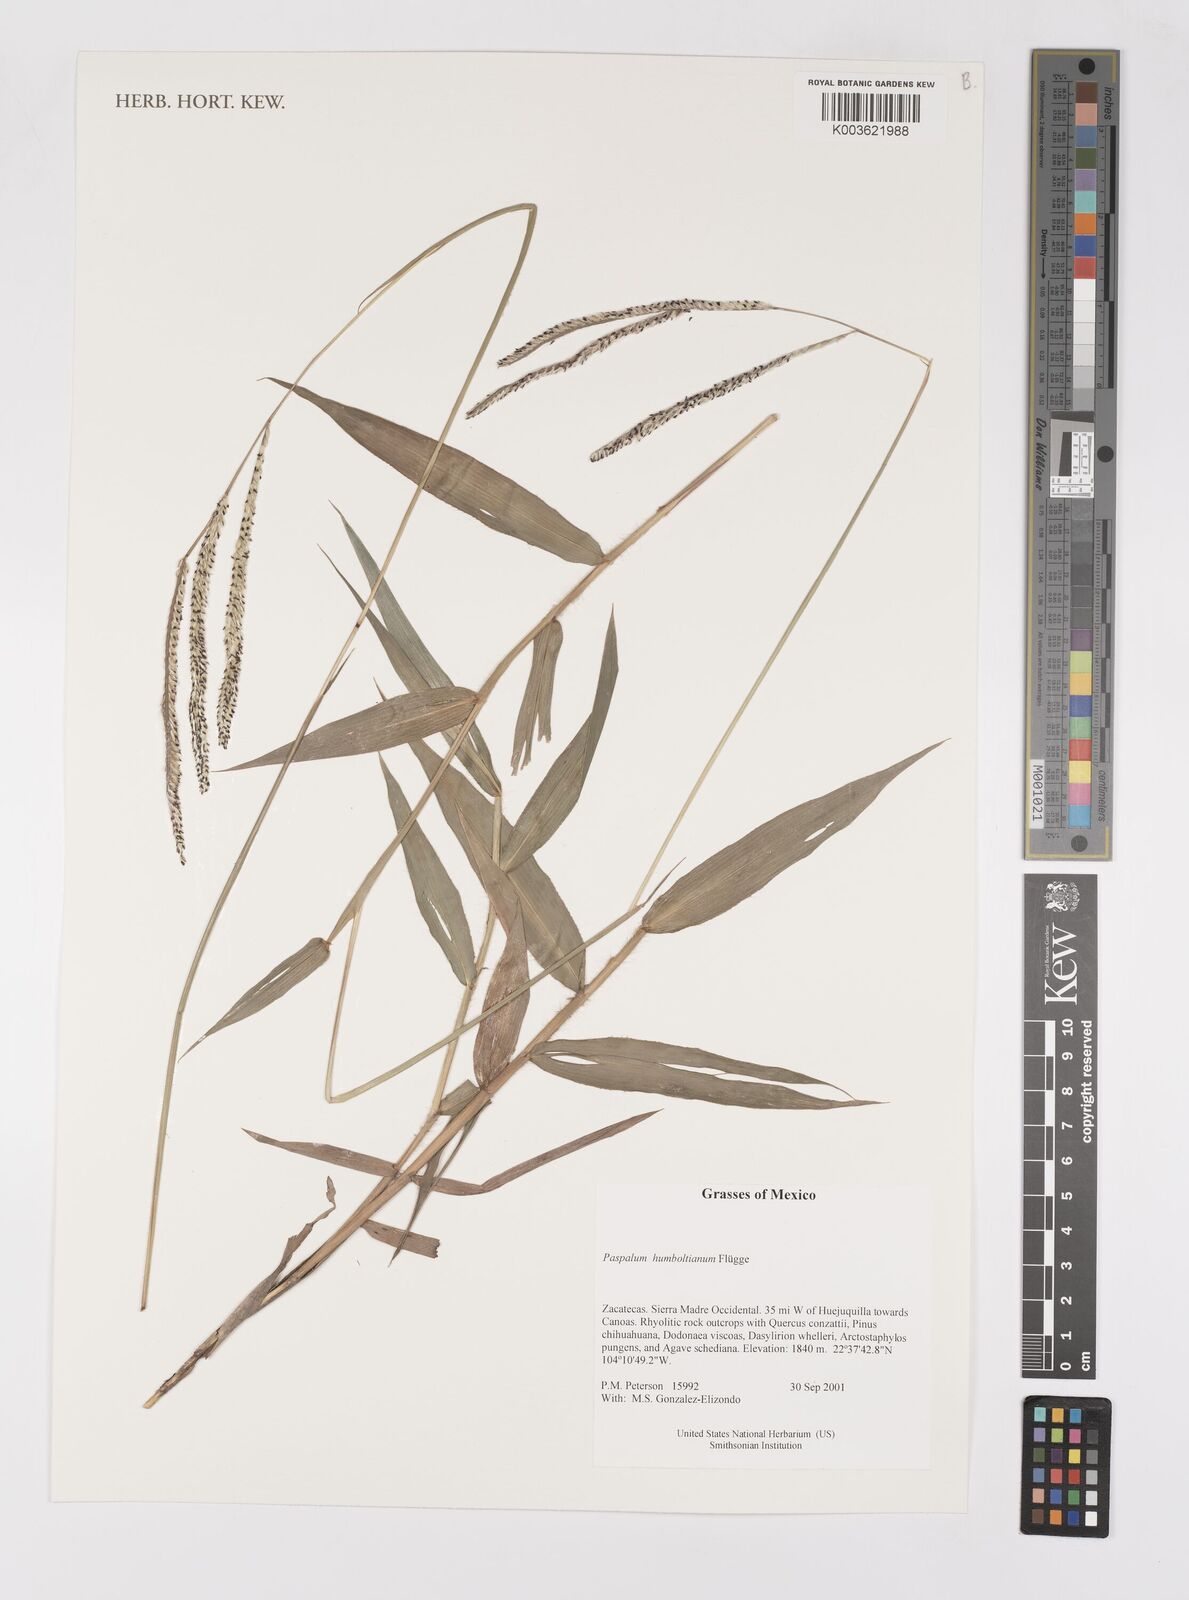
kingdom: Plantae
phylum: Tracheophyta
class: Liliopsida
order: Poales
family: Poaceae
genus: Paspalum
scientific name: Paspalum humboldtianum
